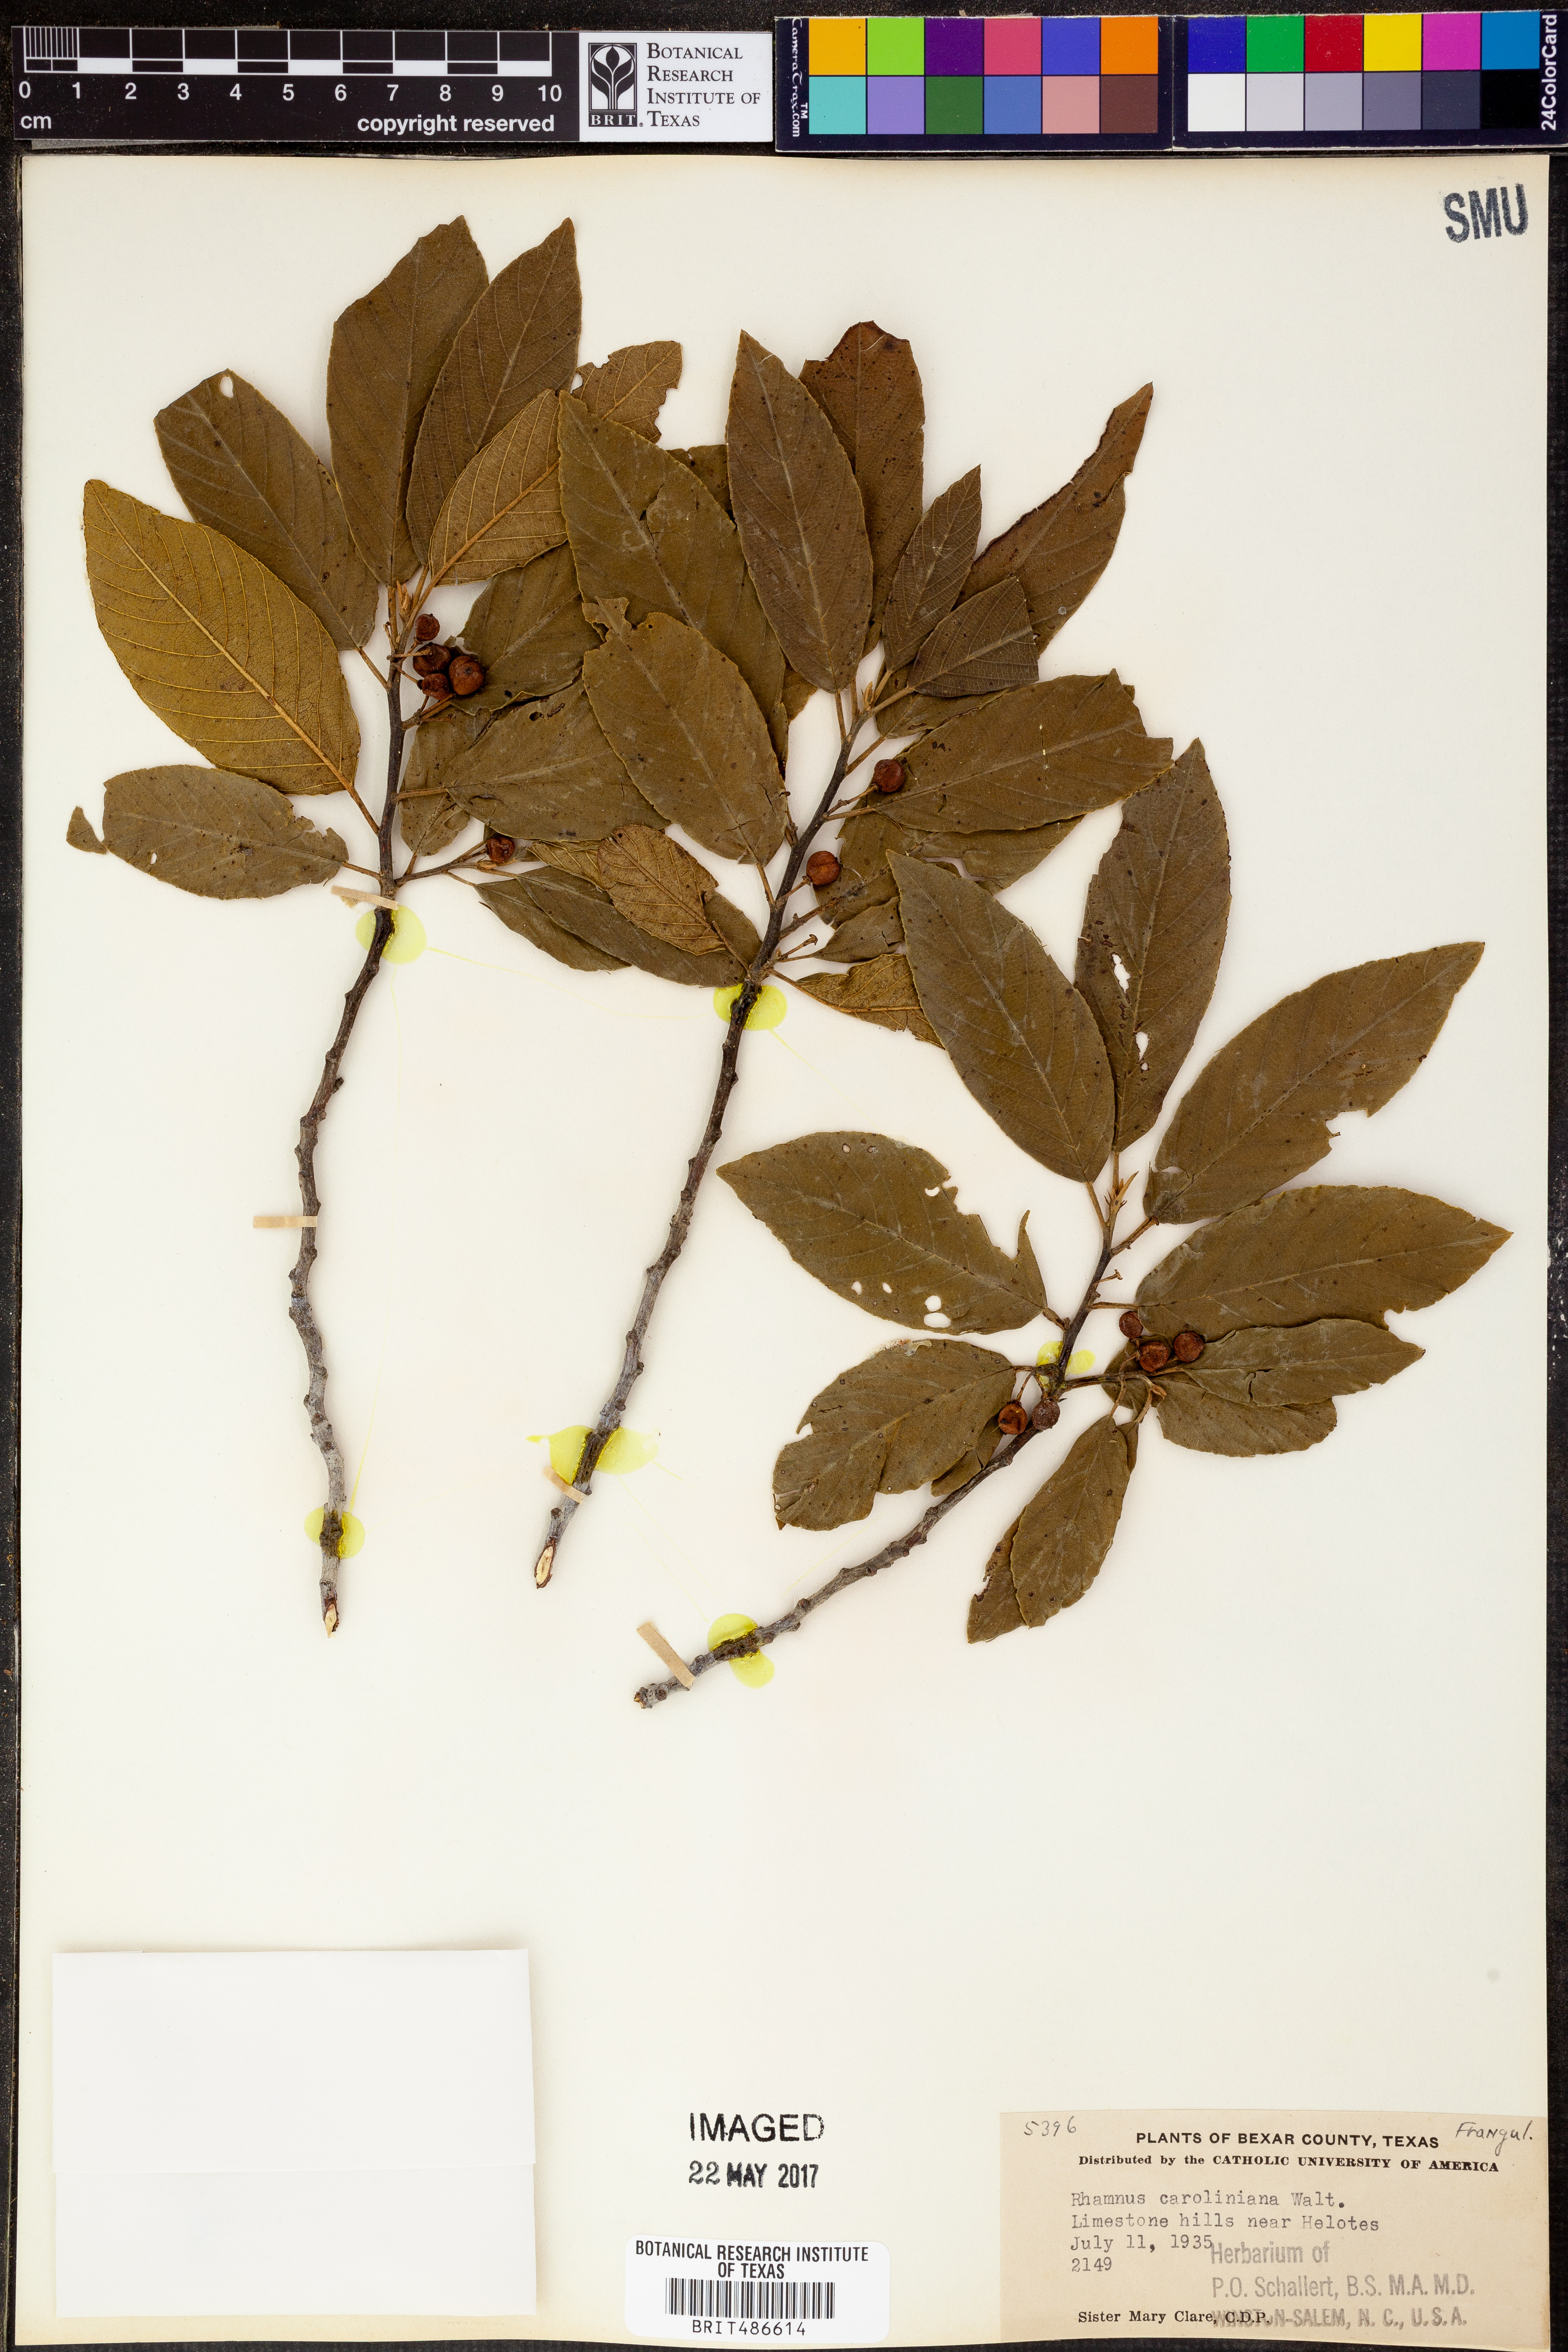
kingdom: Plantae
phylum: Tracheophyta
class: Magnoliopsida
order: Rosales
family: Rhamnaceae
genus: Frangula
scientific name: Frangula caroliniana
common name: Carolina buckthorn
